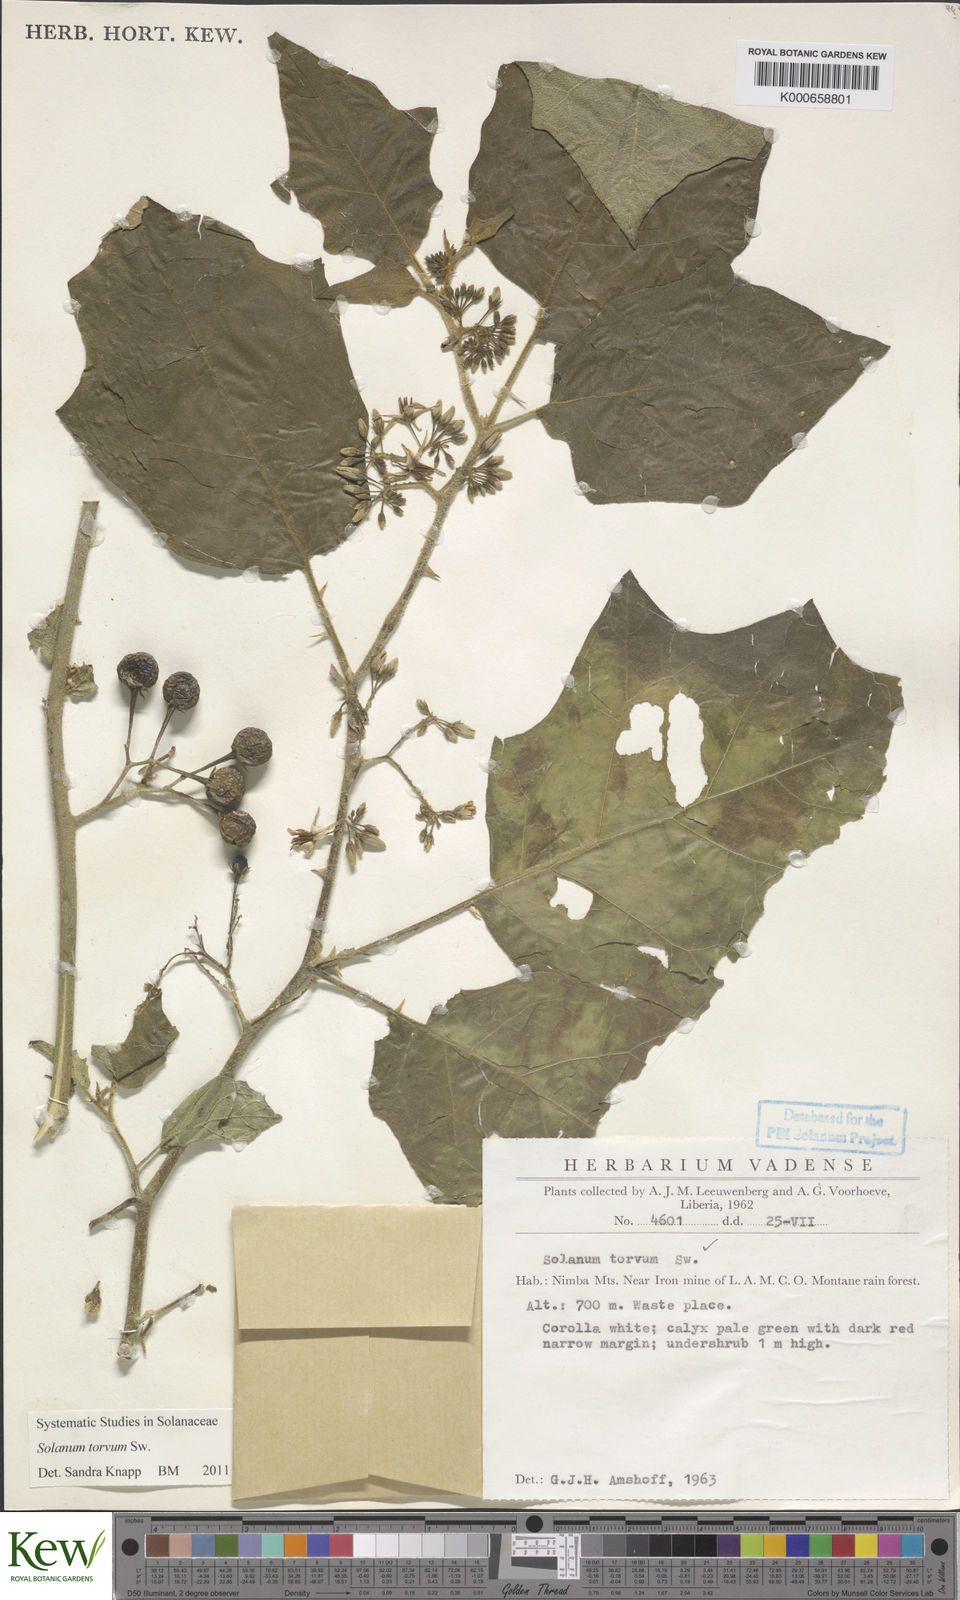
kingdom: Plantae
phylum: Tracheophyta
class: Magnoliopsida
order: Solanales
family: Solanaceae
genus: Solanum
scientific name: Solanum torvum
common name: Turkey berry
